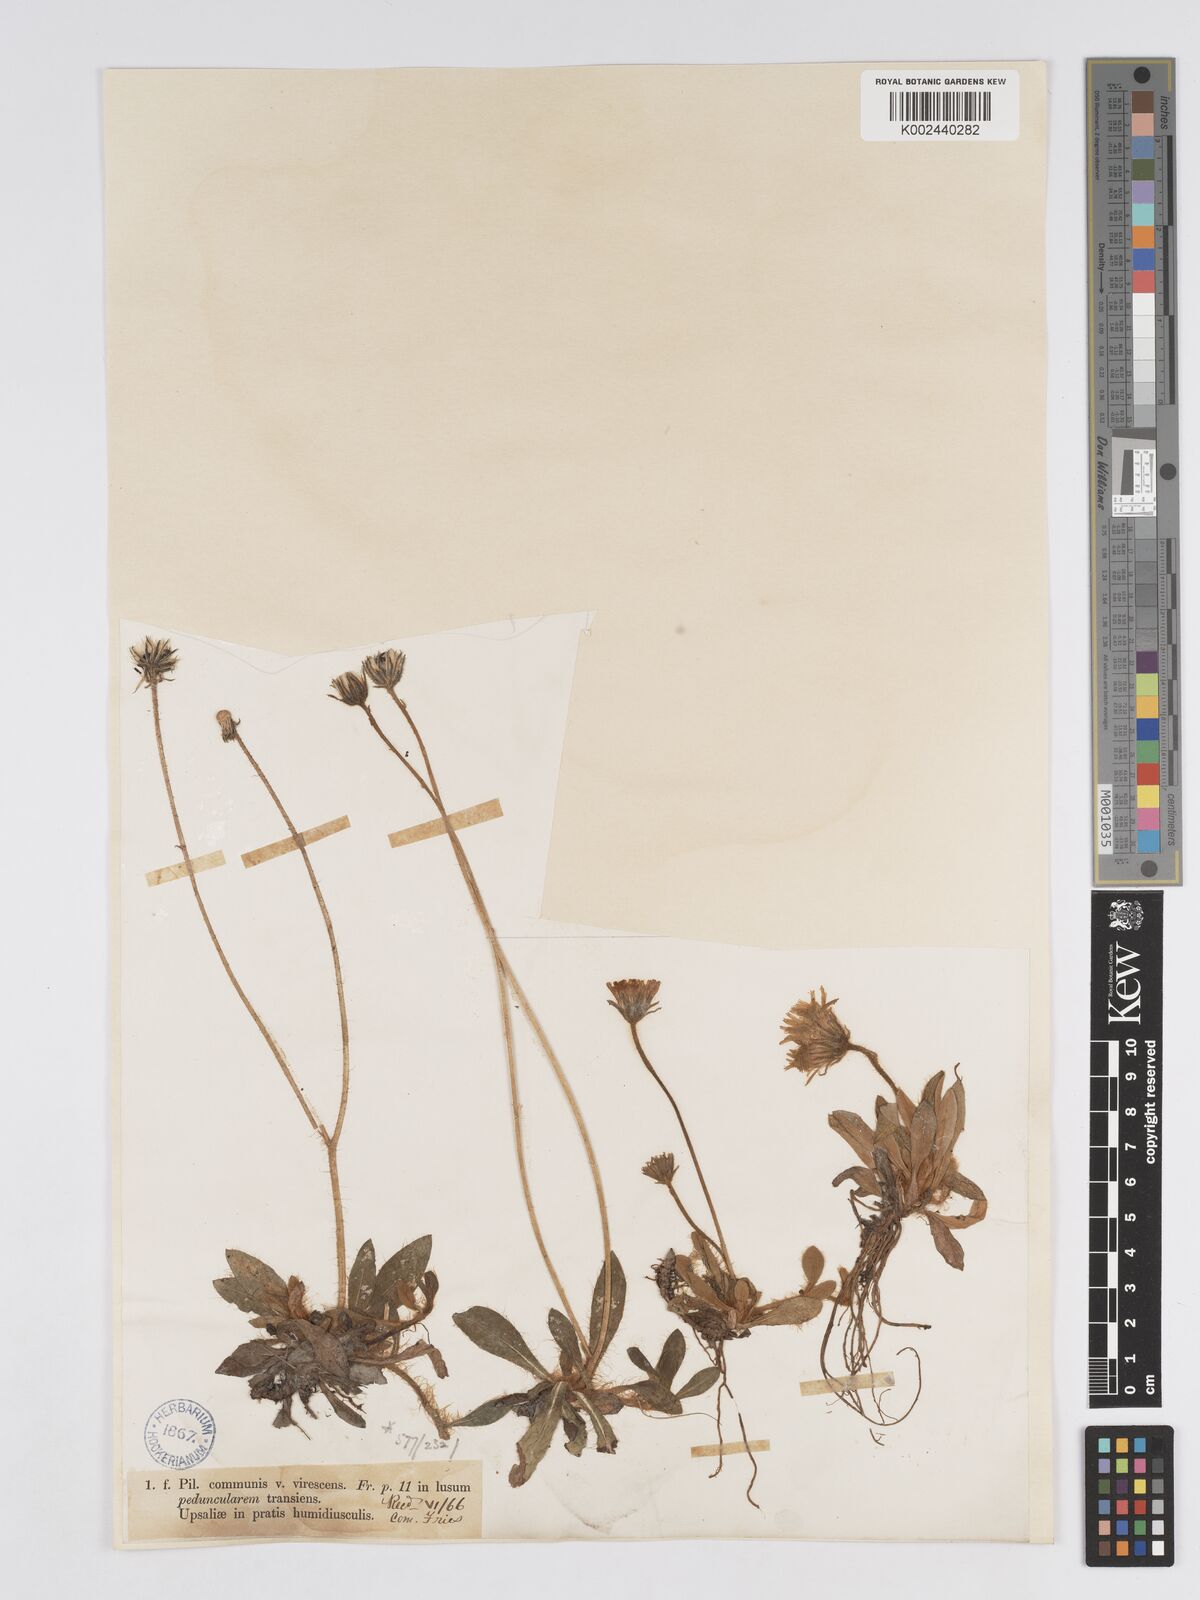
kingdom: Plantae
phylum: Tracheophyta
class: Magnoliopsida
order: Asterales
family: Asteraceae
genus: Pilosella
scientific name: Pilosella officinarum
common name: Mouse-ear hawkweed
